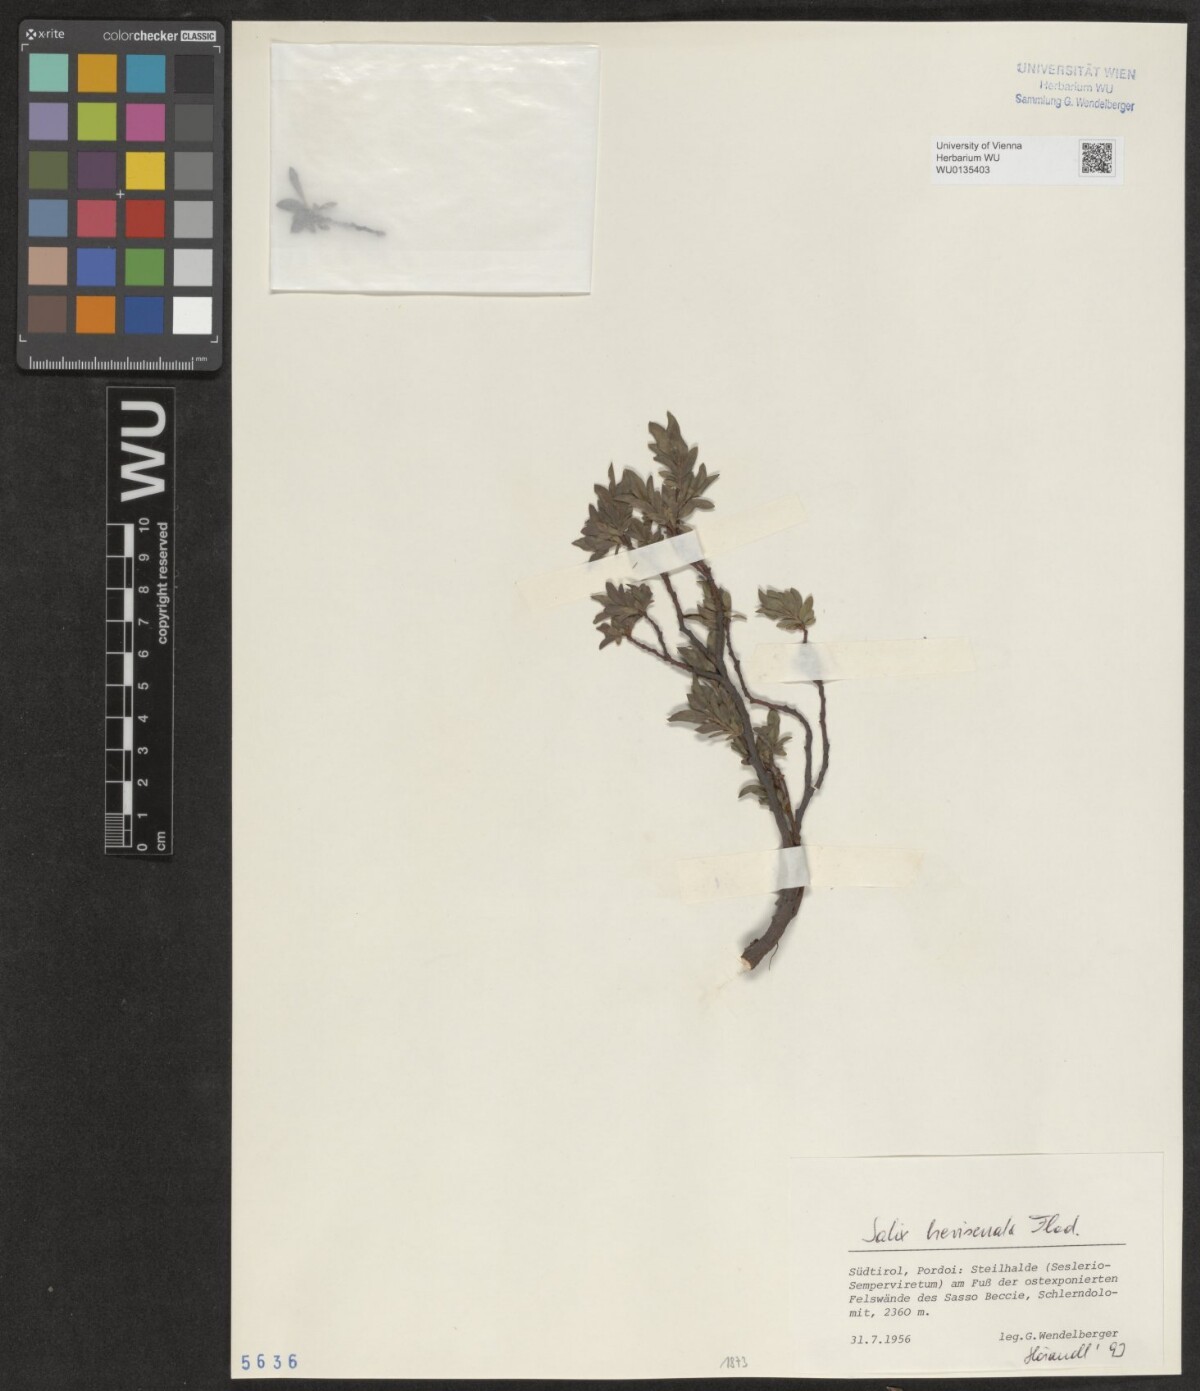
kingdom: Plantae
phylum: Tracheophyta
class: Magnoliopsida
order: Malpighiales
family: Salicaceae
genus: Salix
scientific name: Salix breviserrata
